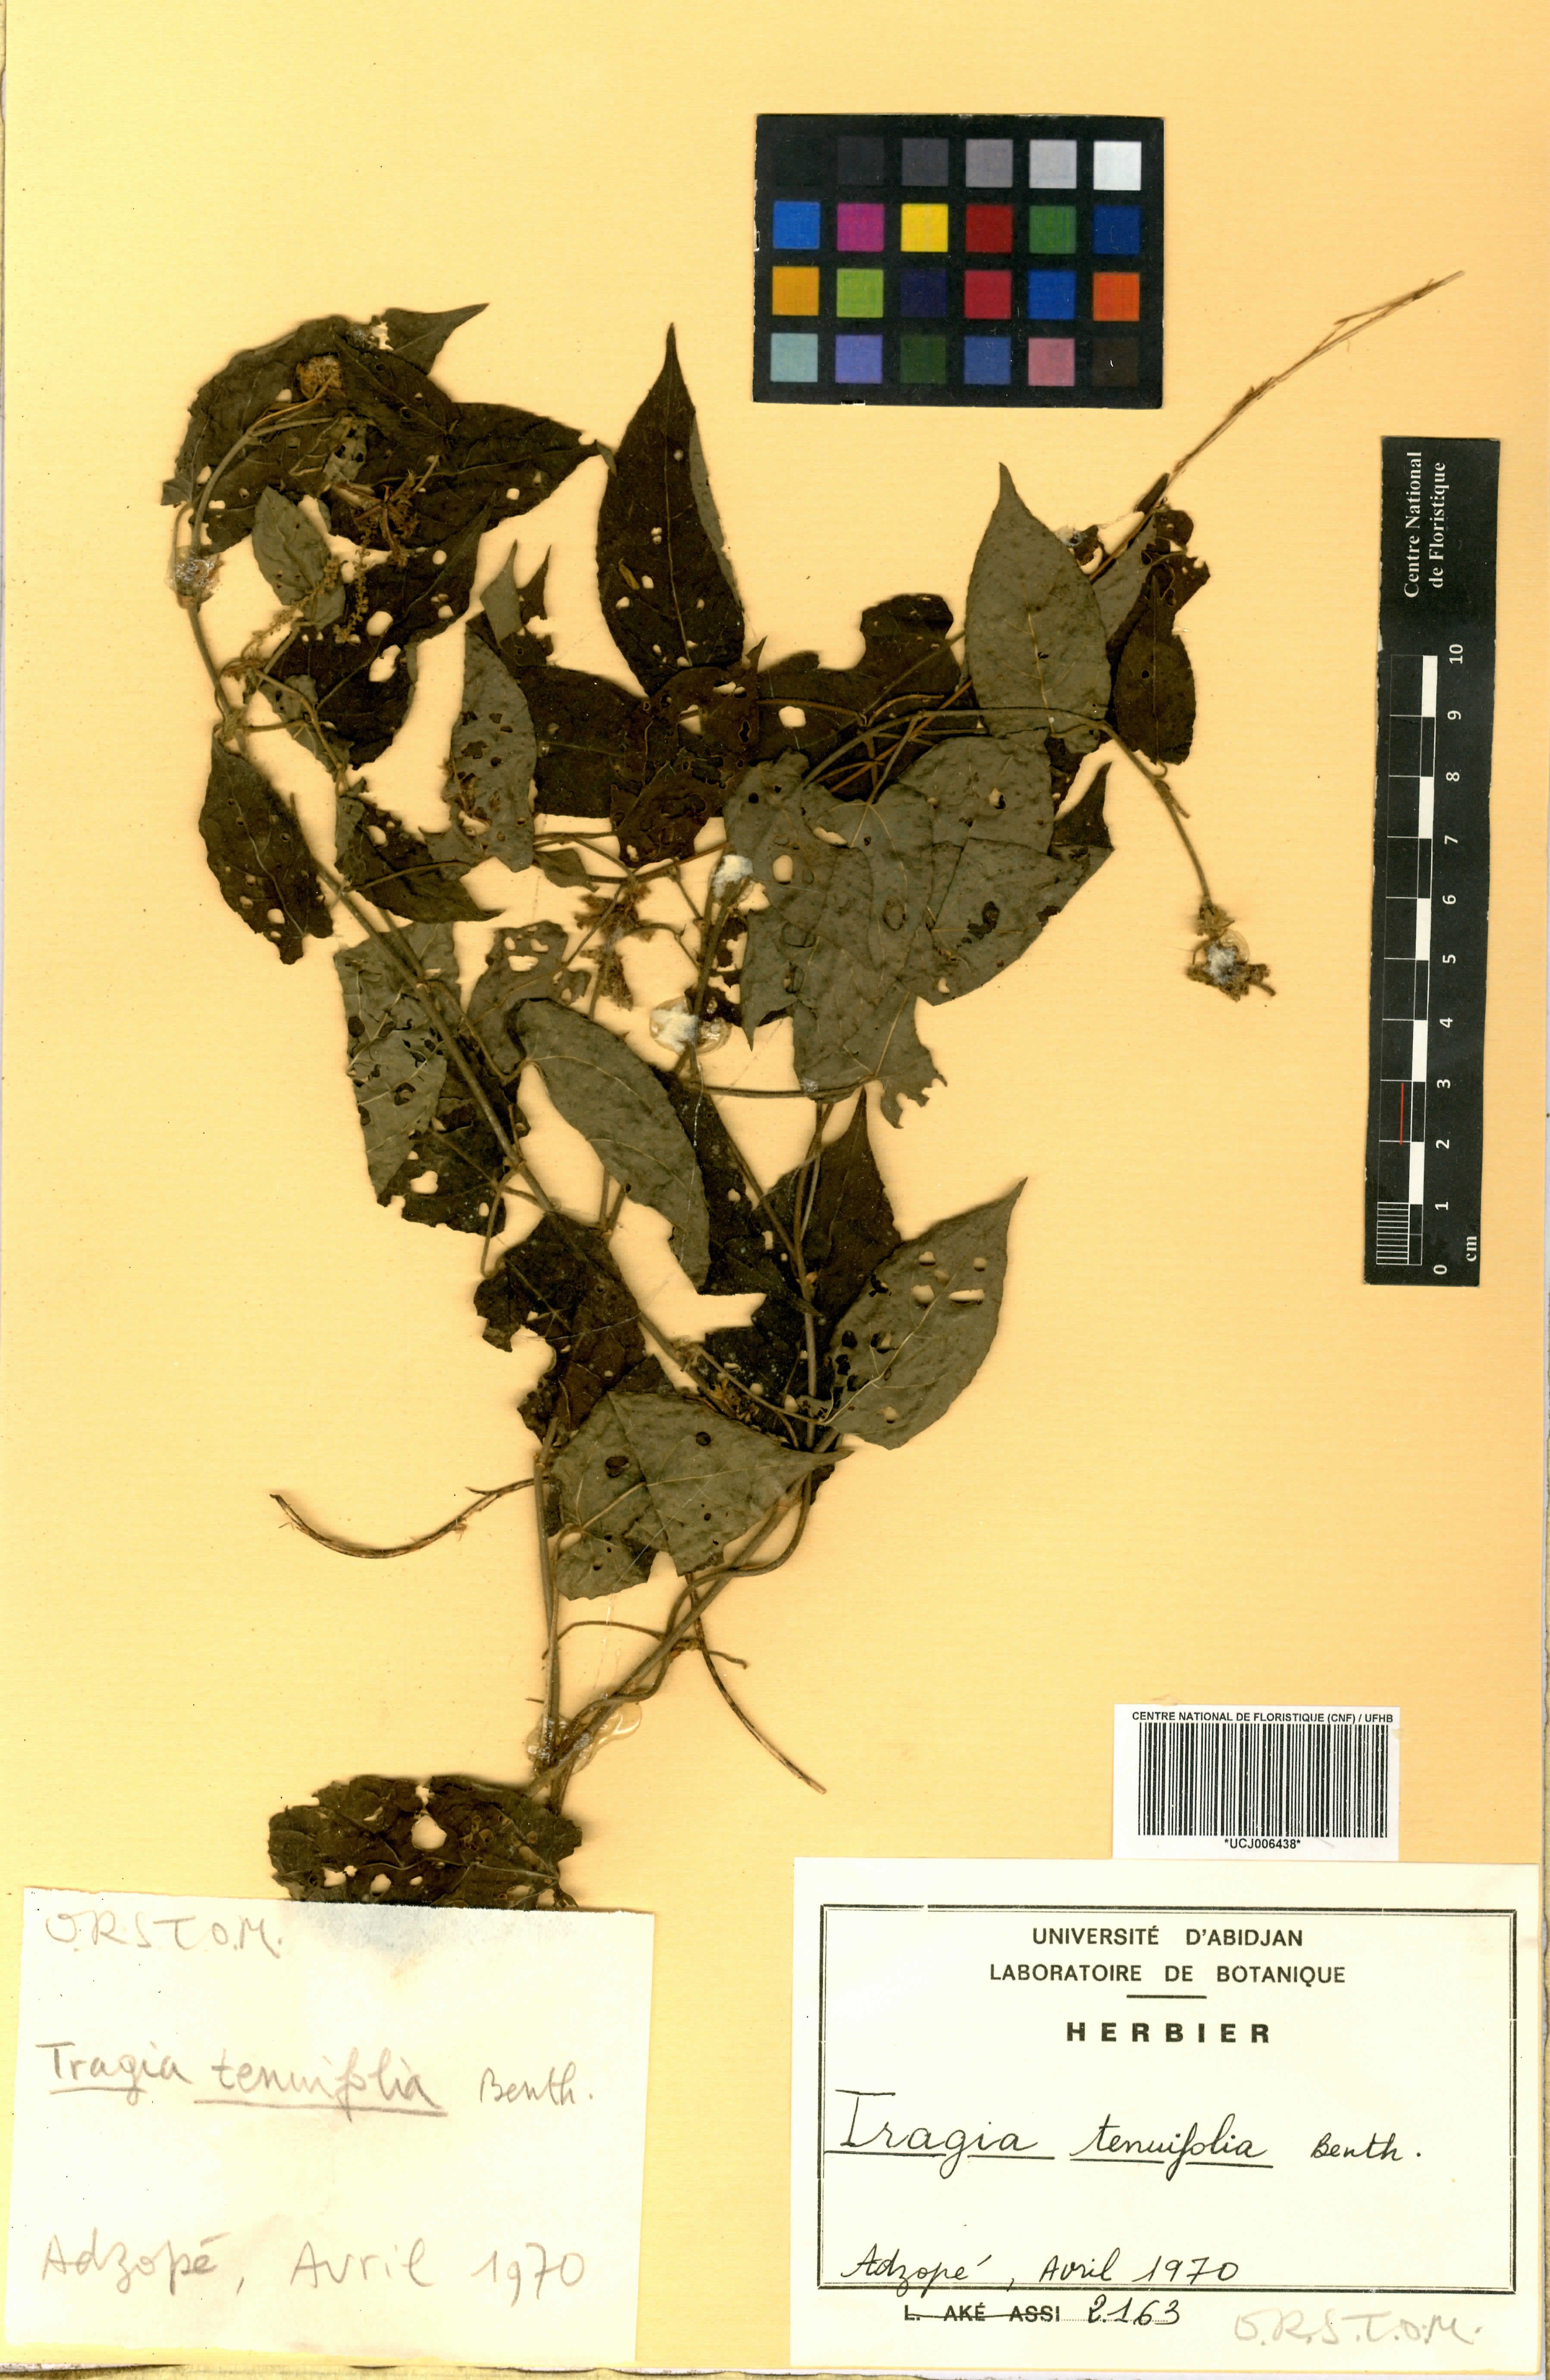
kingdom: Plantae
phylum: Tracheophyta
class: Magnoliopsida
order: Malpighiales
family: Euphorbiaceae
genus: Tragia
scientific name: Tragia tenuifolia
